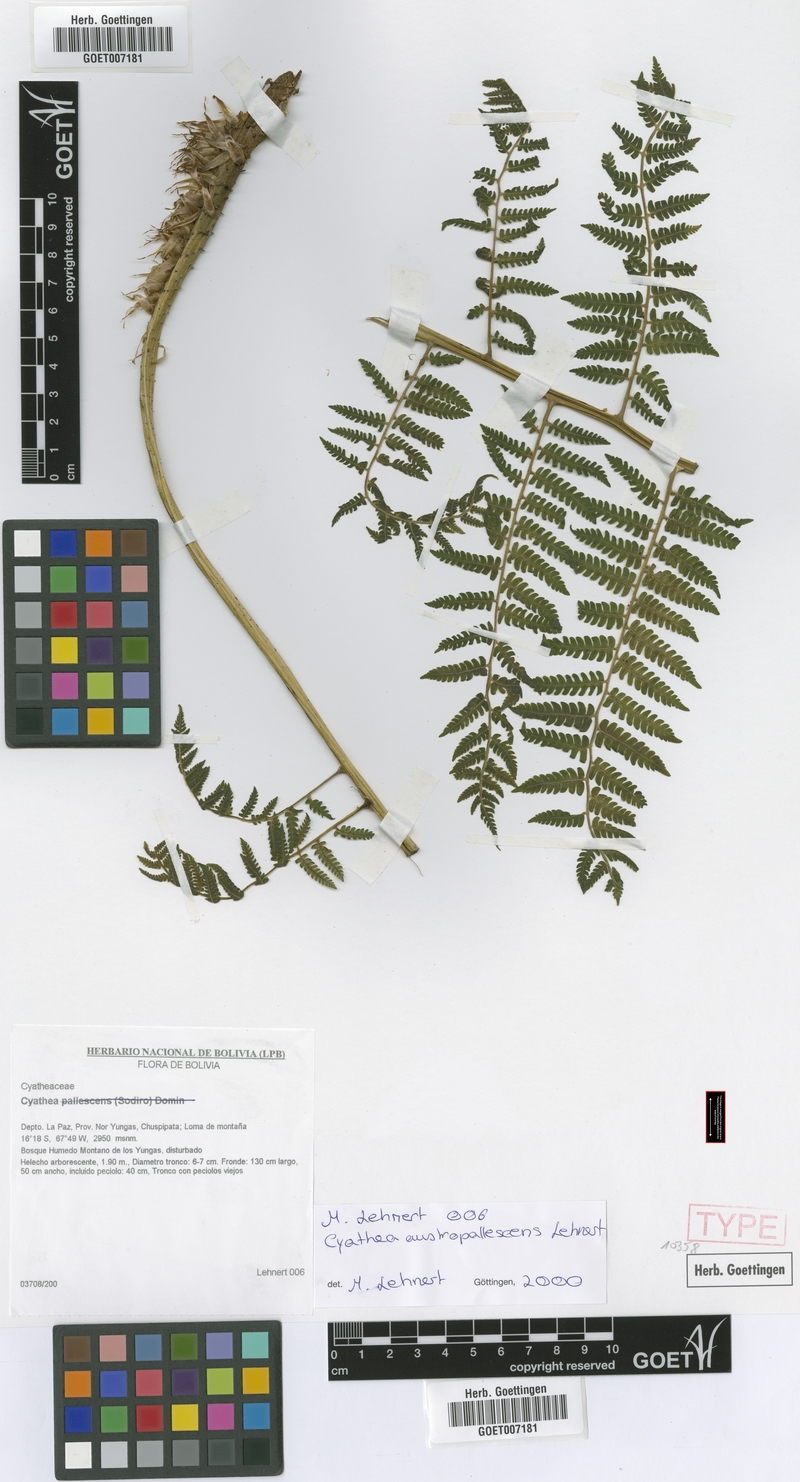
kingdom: Plantae
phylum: Tracheophyta
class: Polypodiopsida
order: Cyatheales
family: Cyatheaceae
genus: Cyathea
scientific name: Cyathea austropallescens
